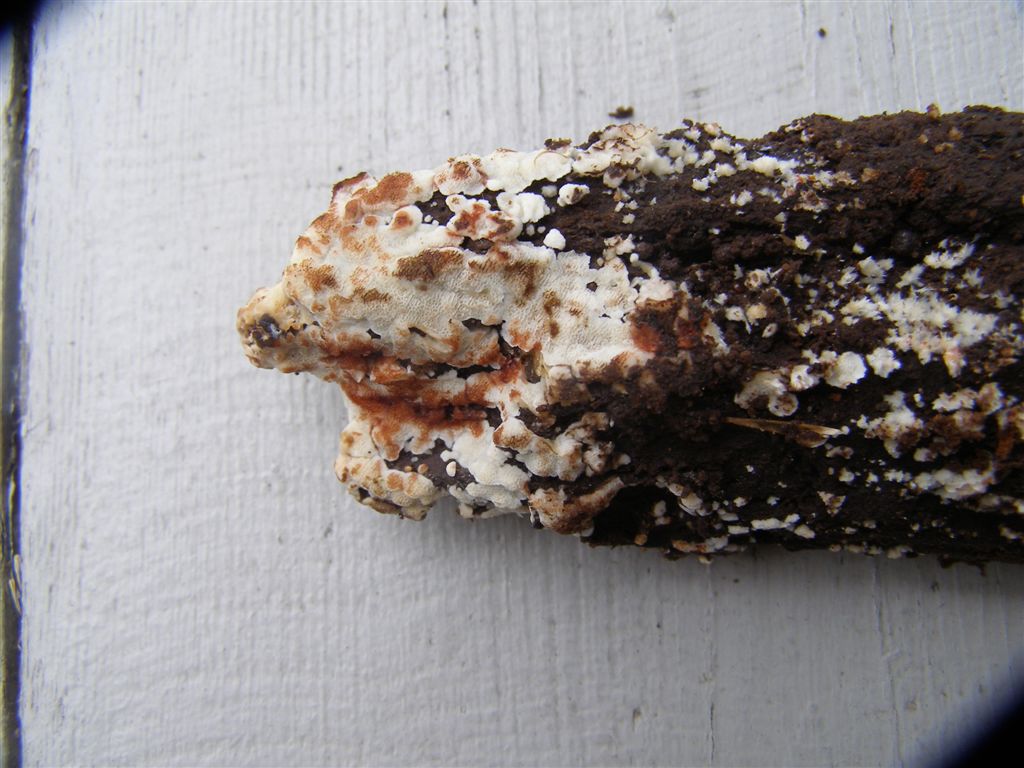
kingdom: Fungi
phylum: Basidiomycota
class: Agaricomycetes
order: Polyporales
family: Meripilaceae
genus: Rigidoporus
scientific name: Rigidoporus sanguinolentus
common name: blod-skorpeporesvamp
